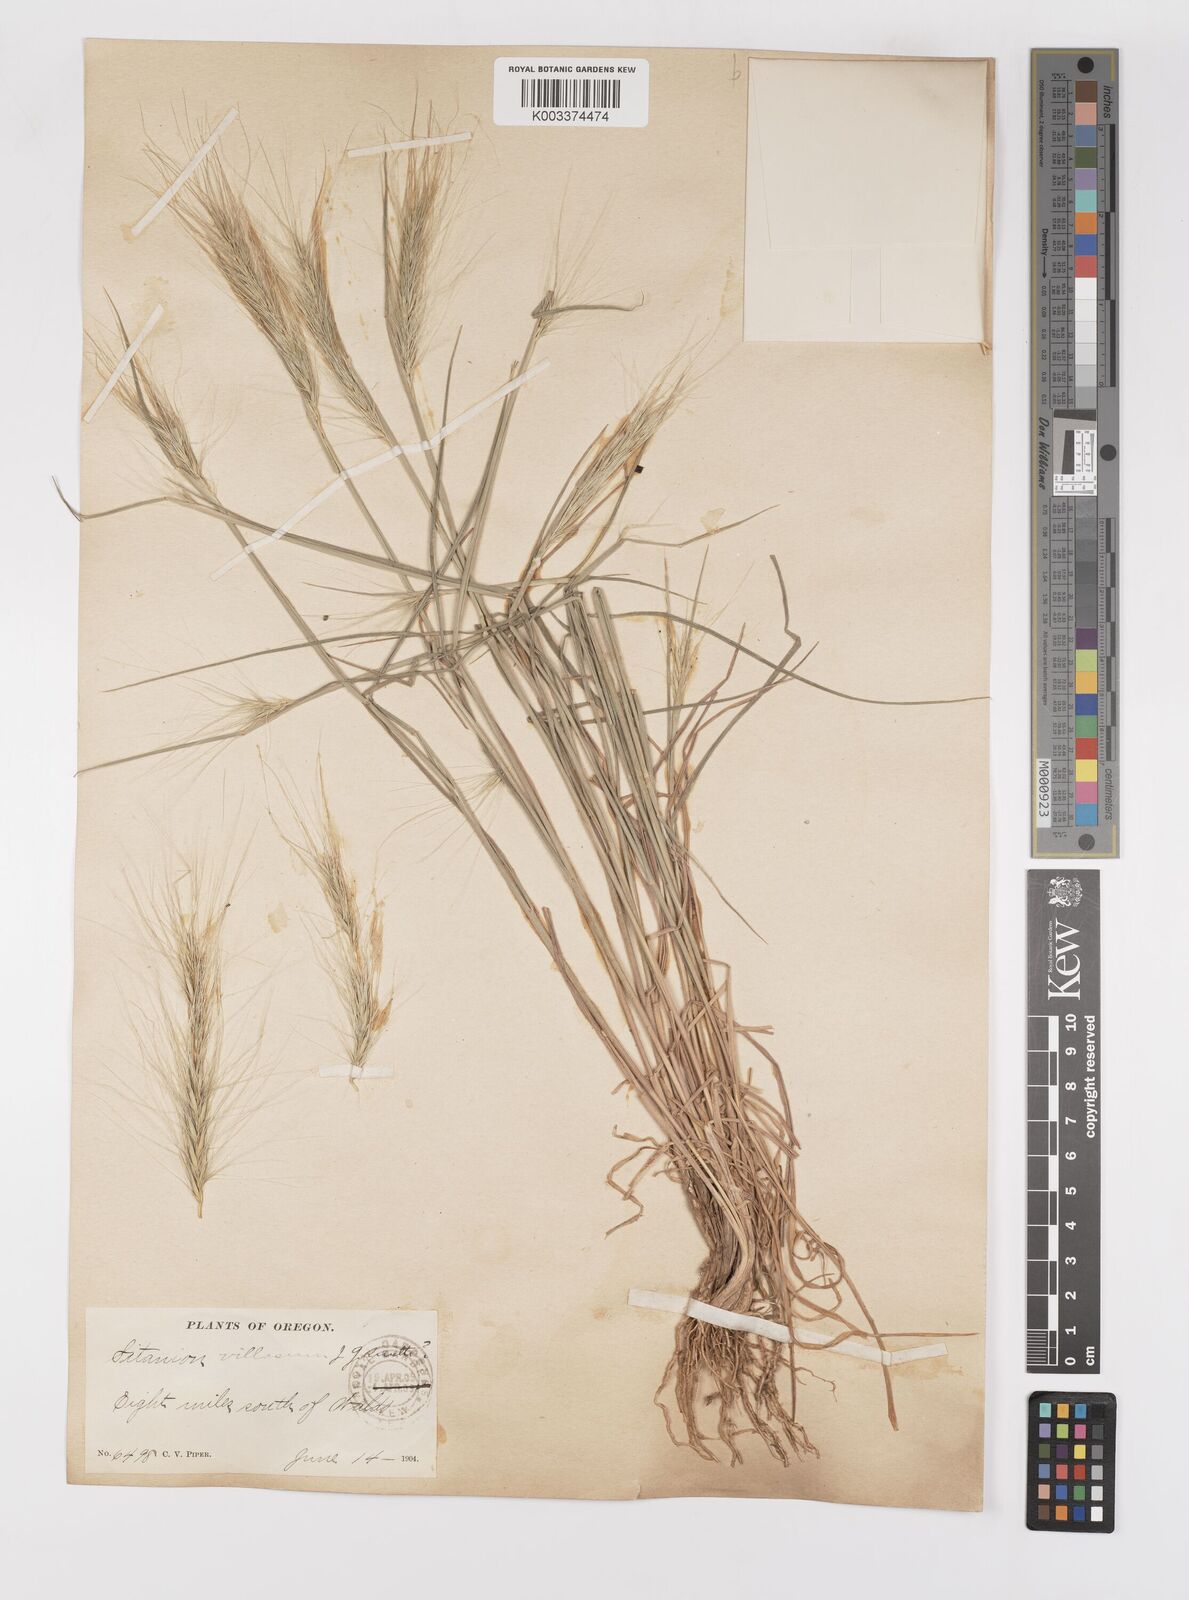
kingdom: Plantae
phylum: Tracheophyta
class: Liliopsida
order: Poales
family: Poaceae
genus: Elymus
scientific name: Elymus multisetus
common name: Big squirreltail
